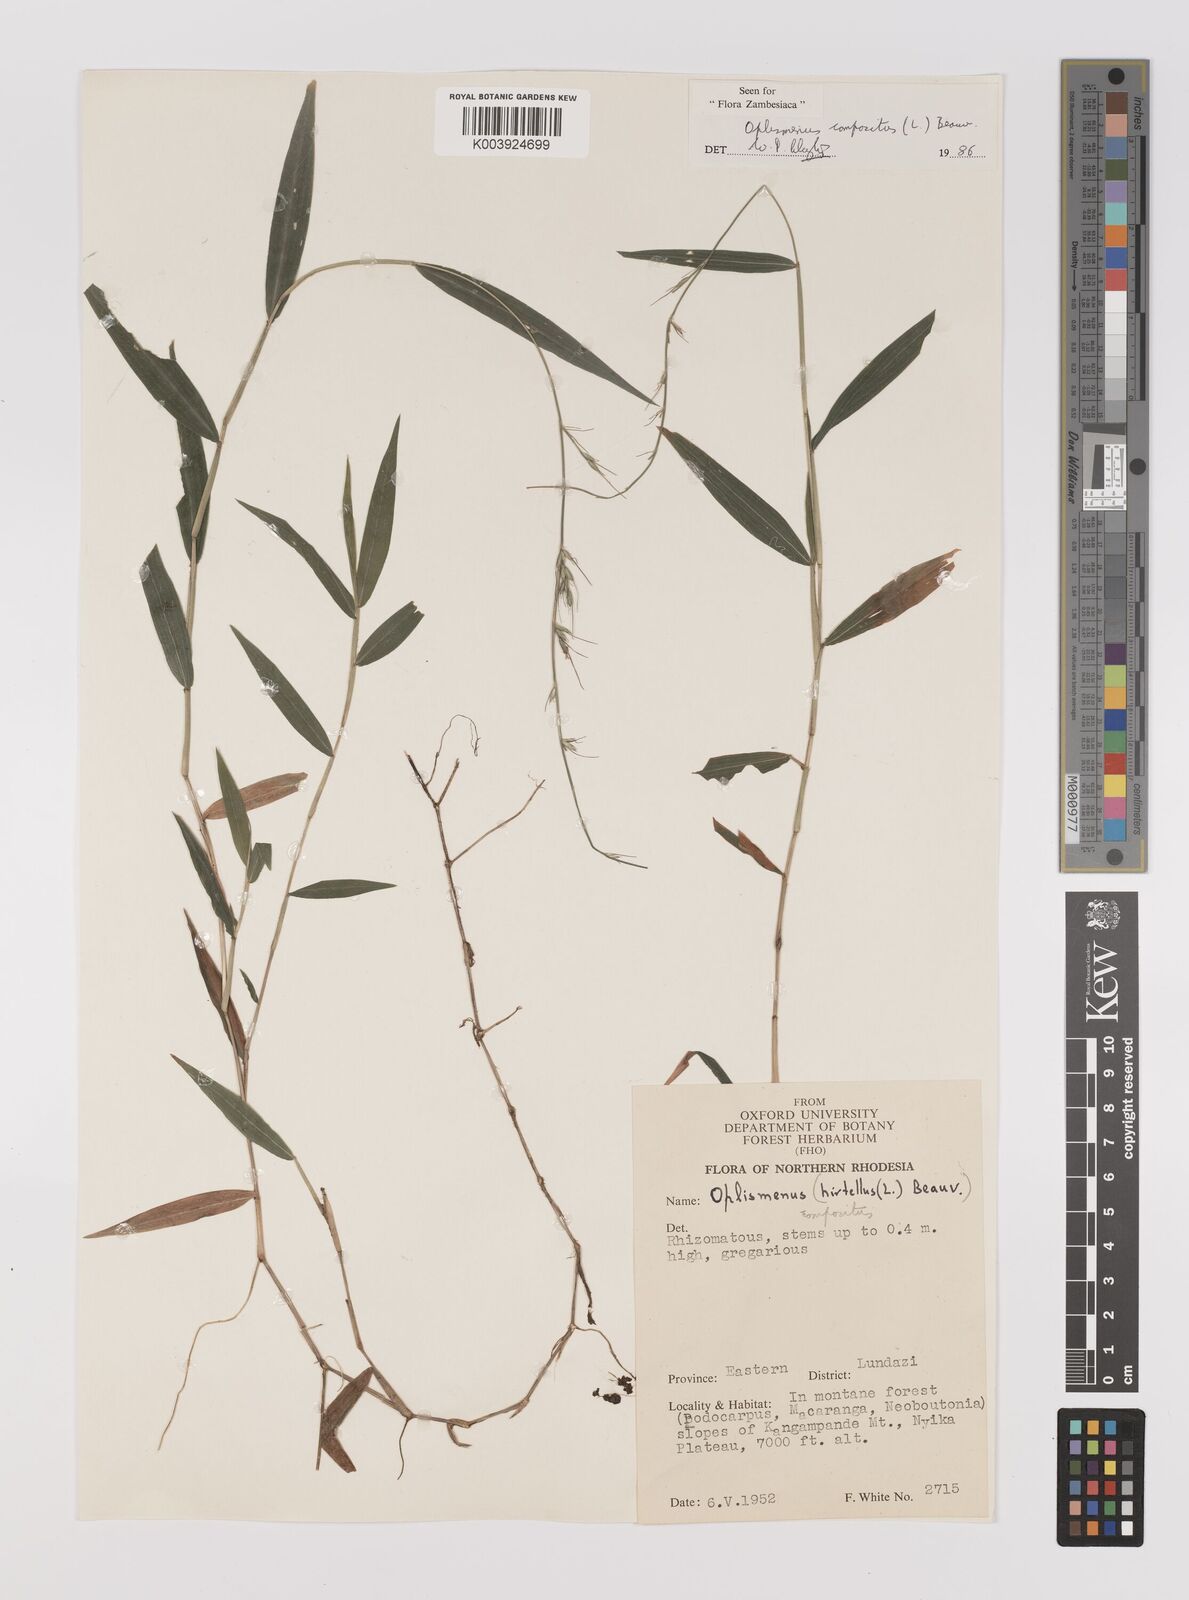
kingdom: Plantae
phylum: Tracheophyta
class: Liliopsida
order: Poales
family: Poaceae
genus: Oplismenus
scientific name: Oplismenus compositus
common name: Running mountain grass
